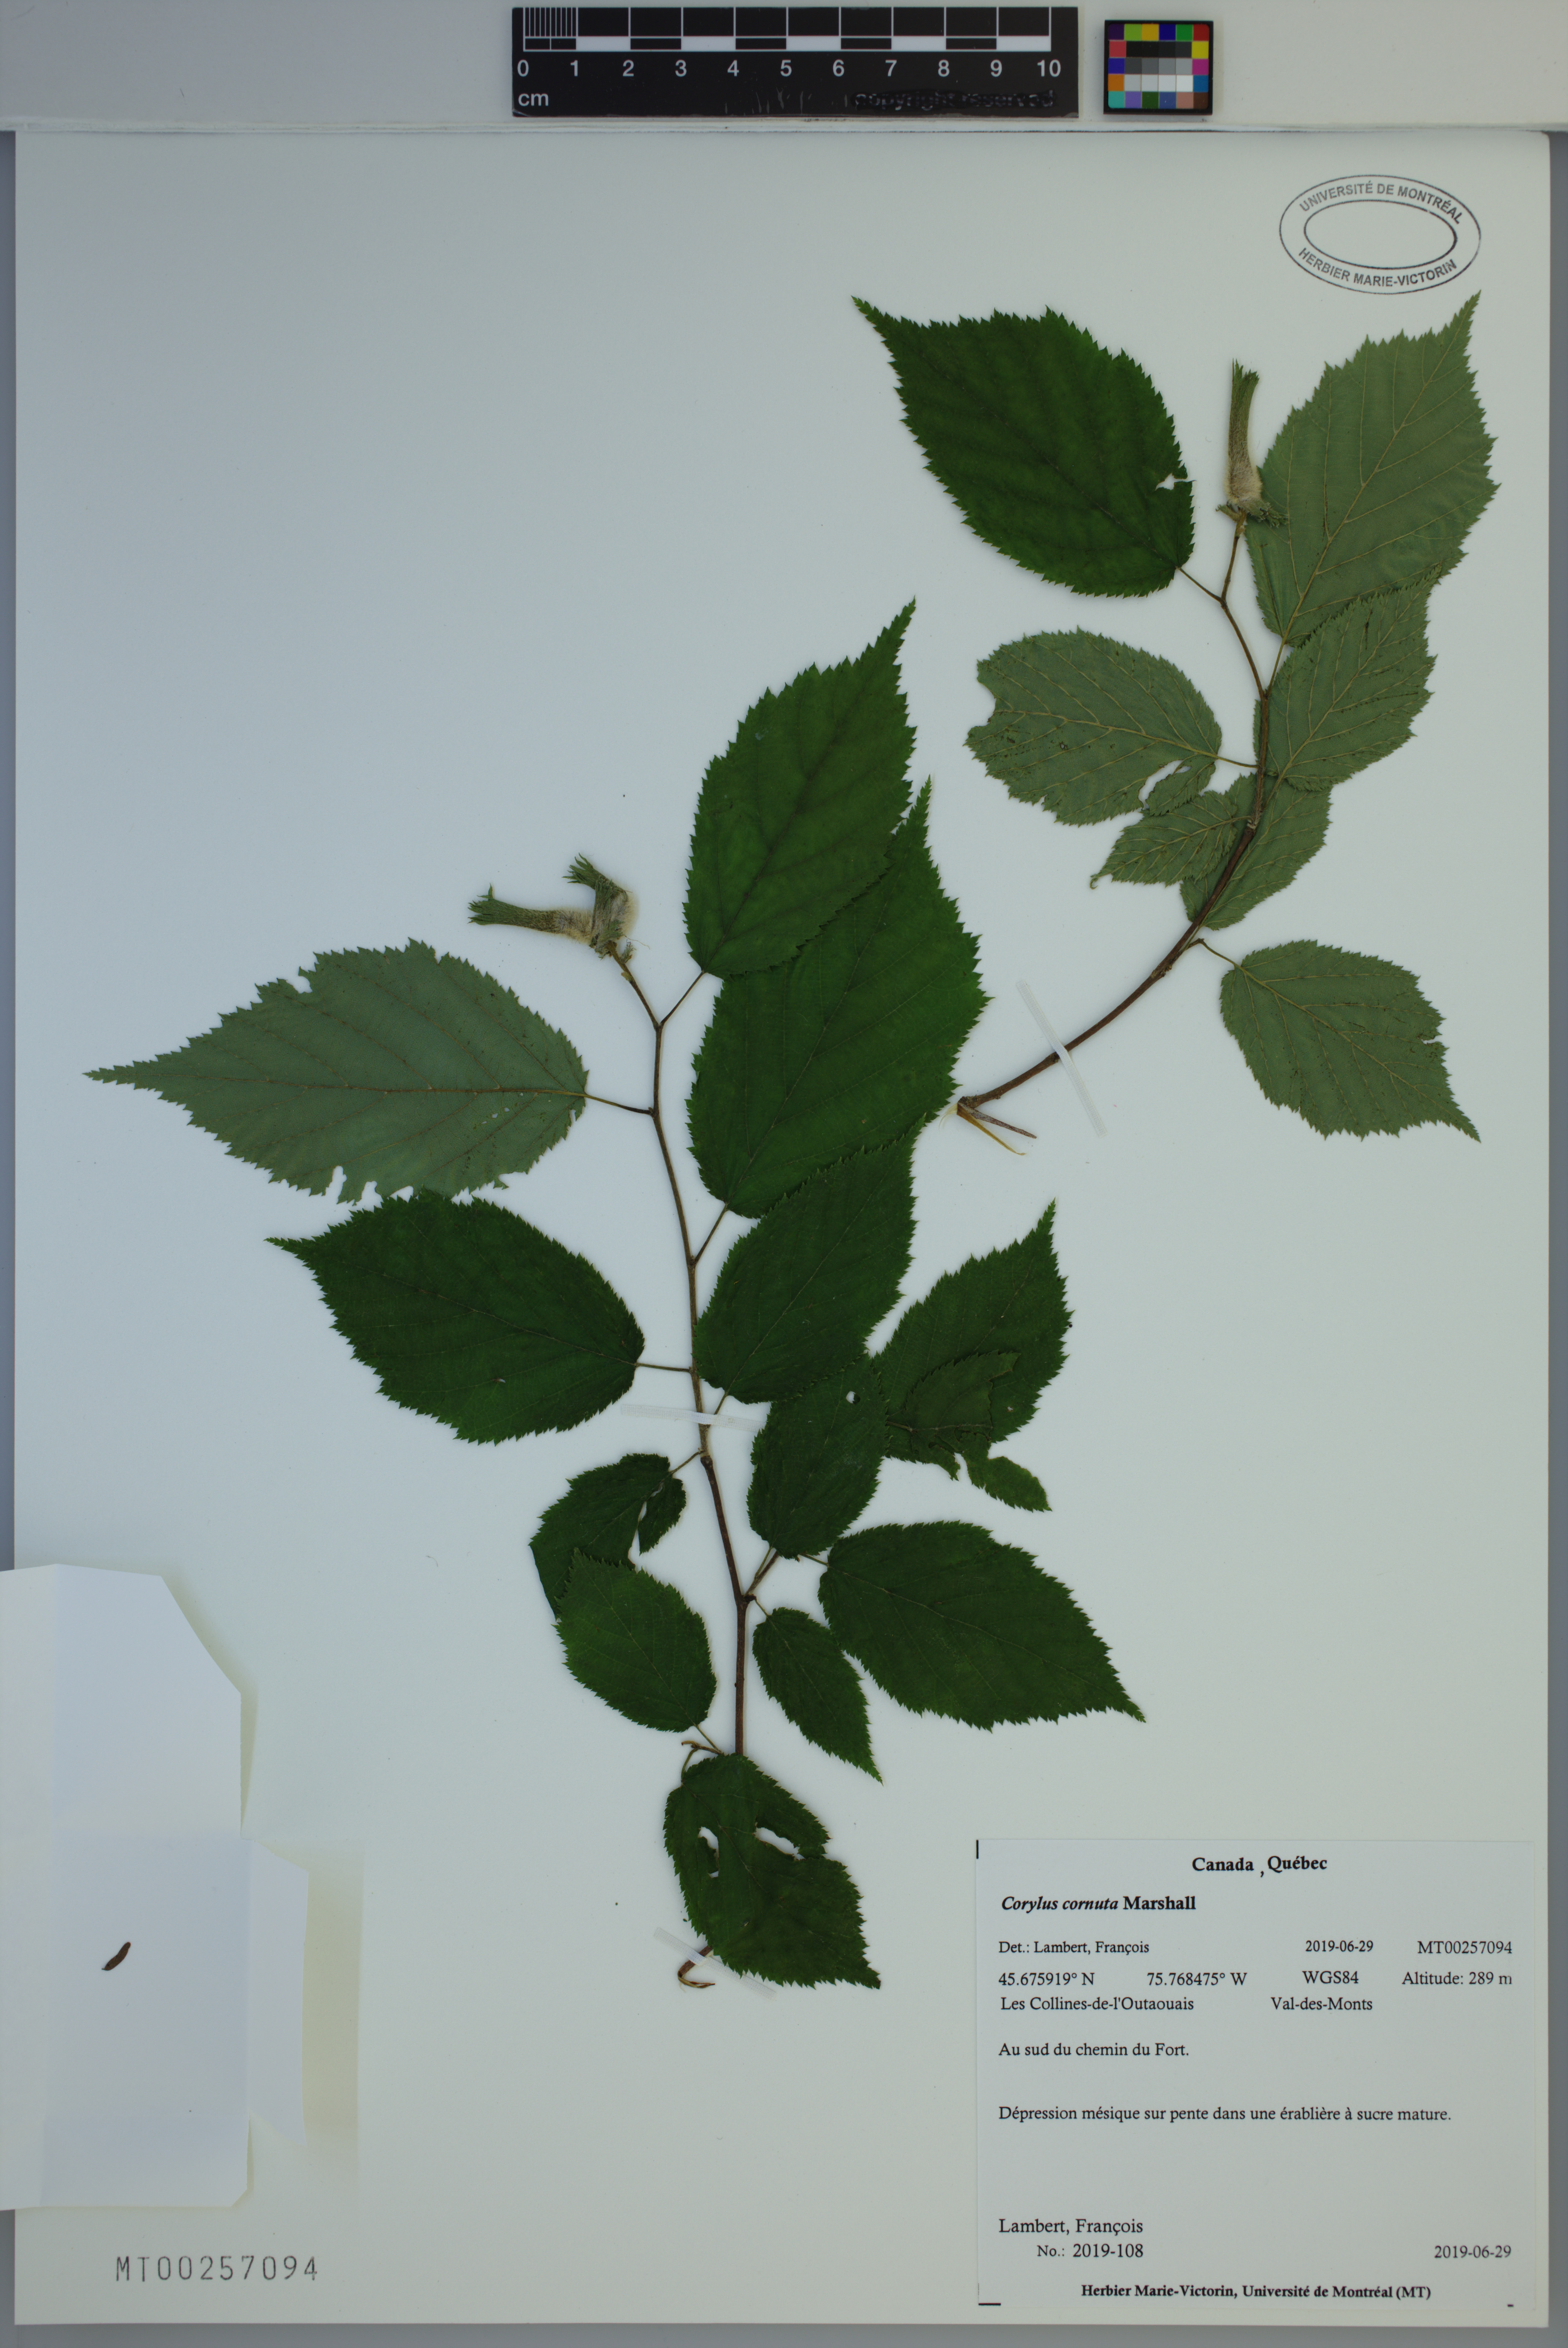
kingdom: Plantae
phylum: Tracheophyta
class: Magnoliopsida
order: Fagales
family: Betulaceae
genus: Corylus
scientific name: Corylus cornuta
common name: Beaked hazel
